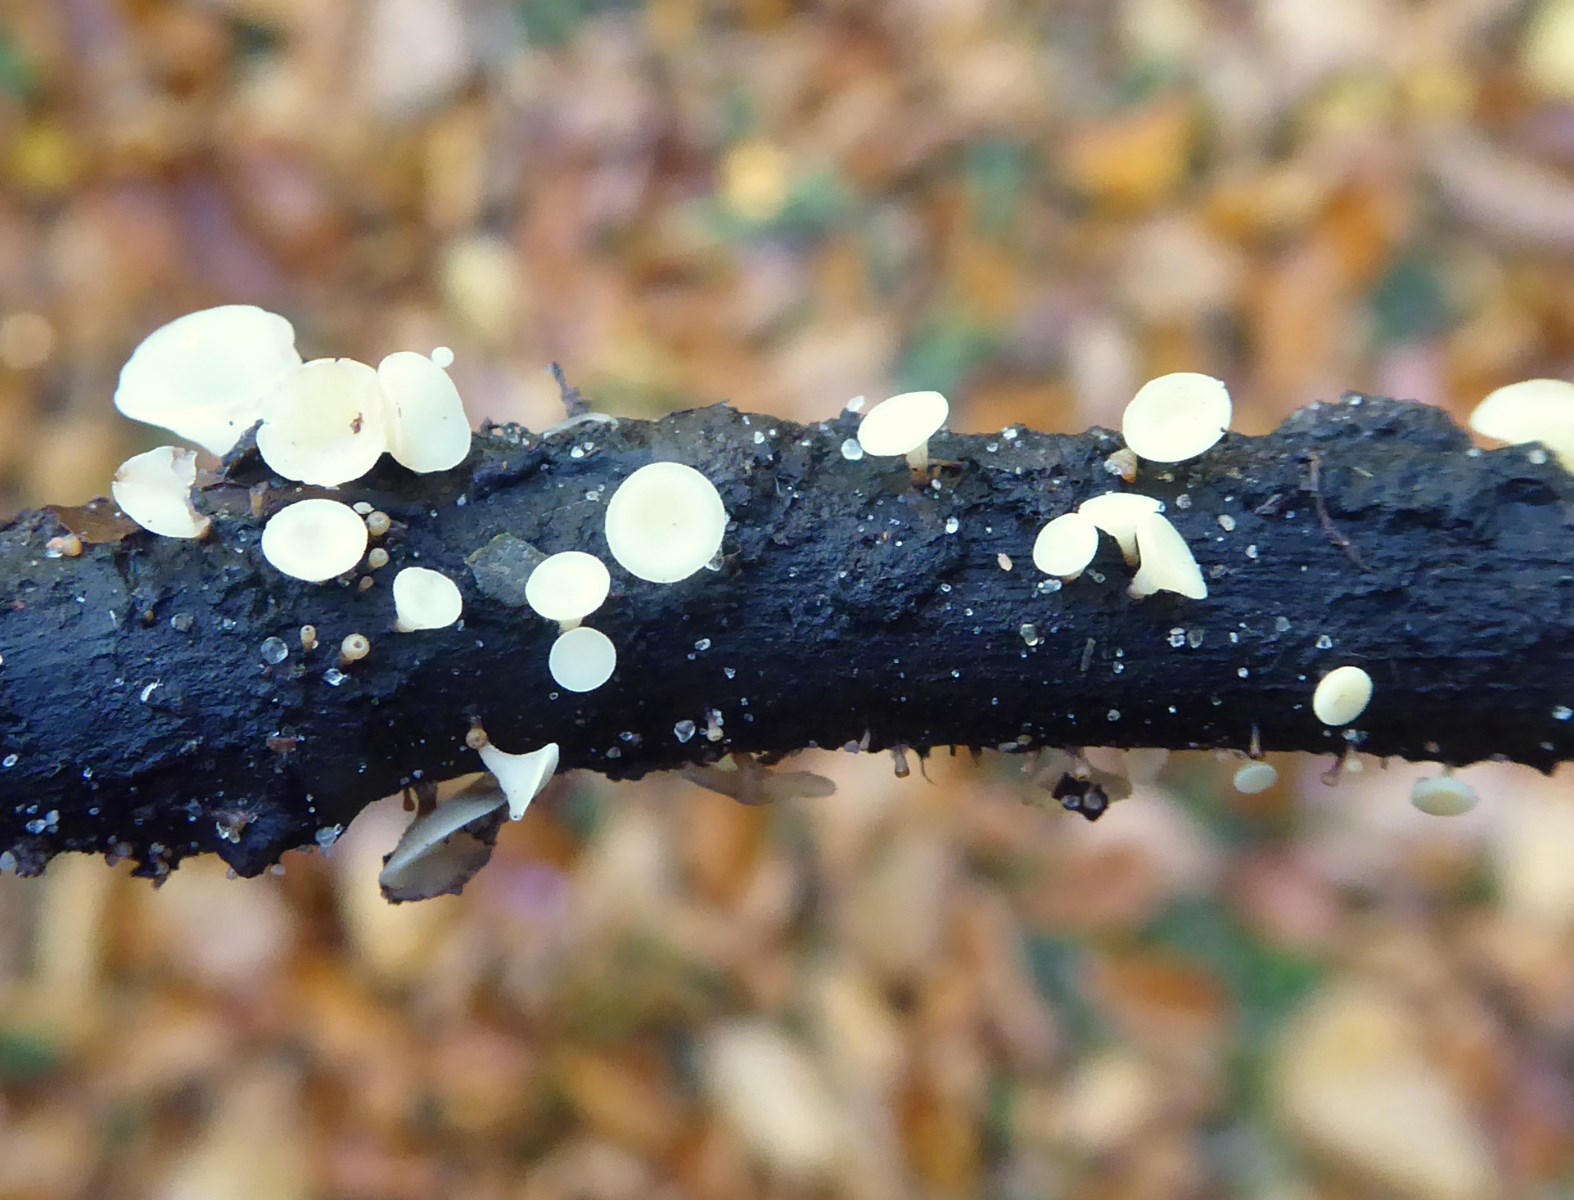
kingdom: Fungi
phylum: Ascomycota
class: Leotiomycetes
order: Helotiales
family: Helotiaceae
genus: Hymenoscyphus
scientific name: Hymenoscyphus
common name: stilkskive
